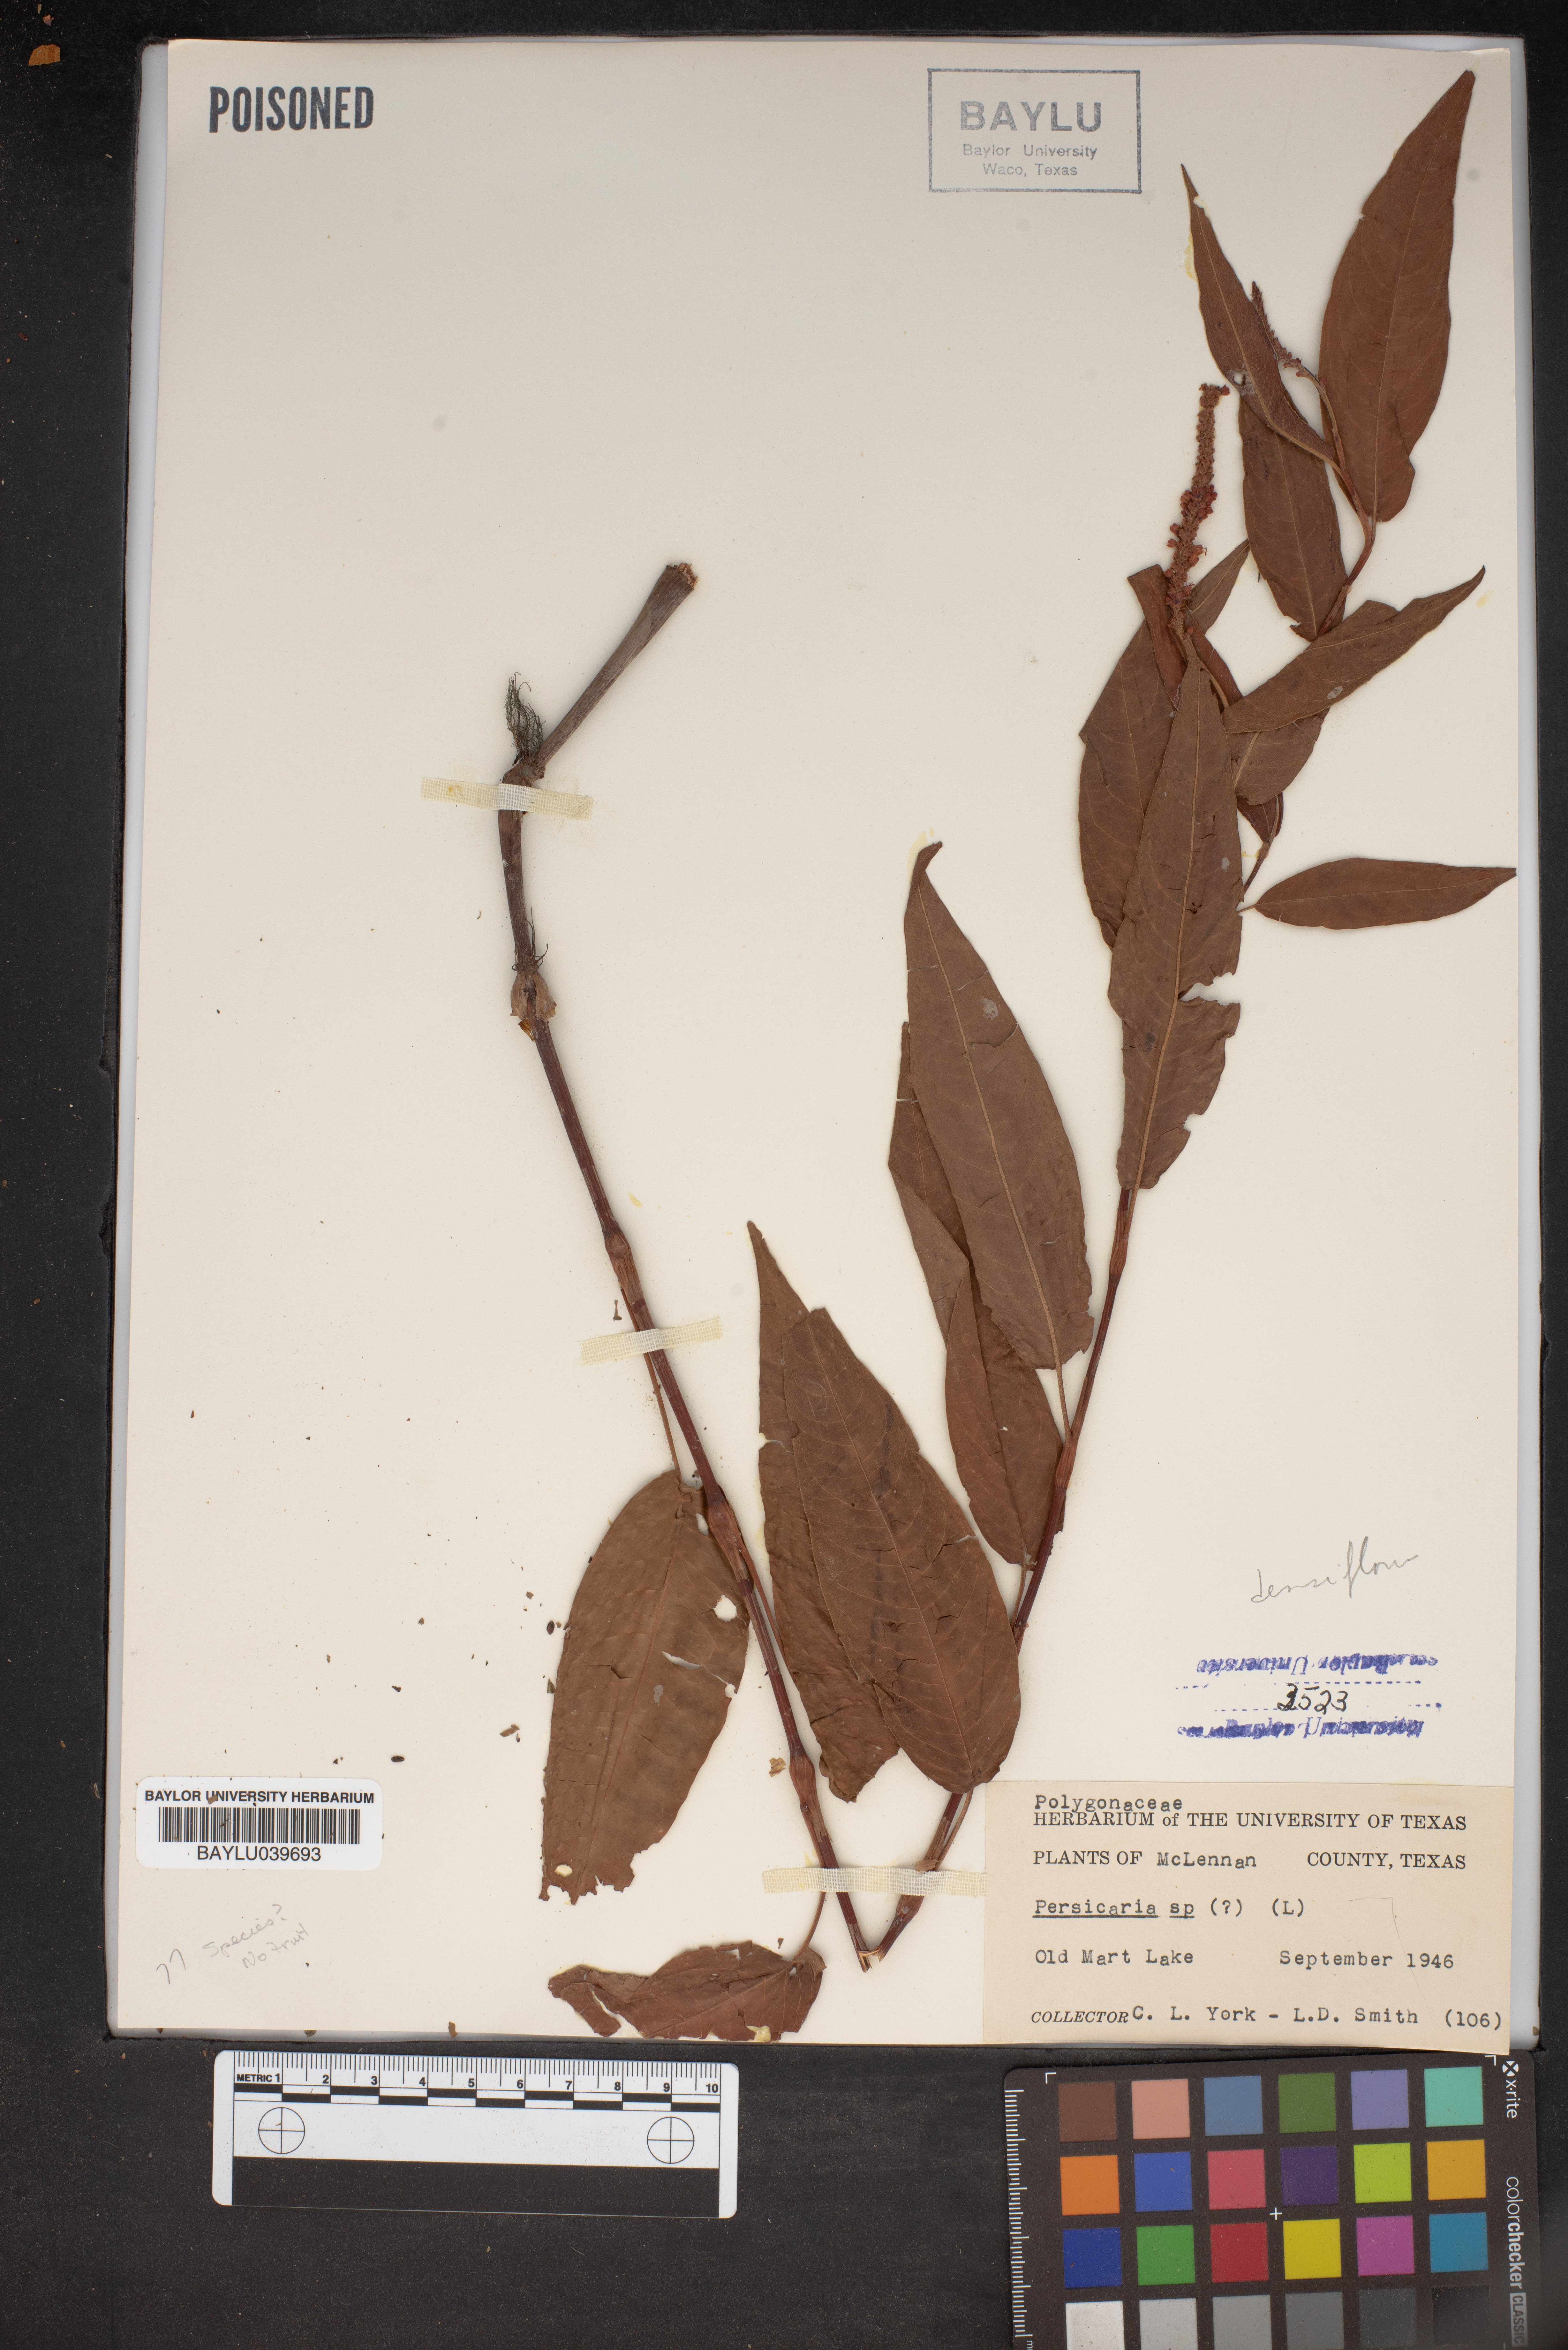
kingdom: Plantae
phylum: Tracheophyta
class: Magnoliopsida
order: Caryophyllales
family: Polygonaceae
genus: Persicaria
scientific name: Persicaria
